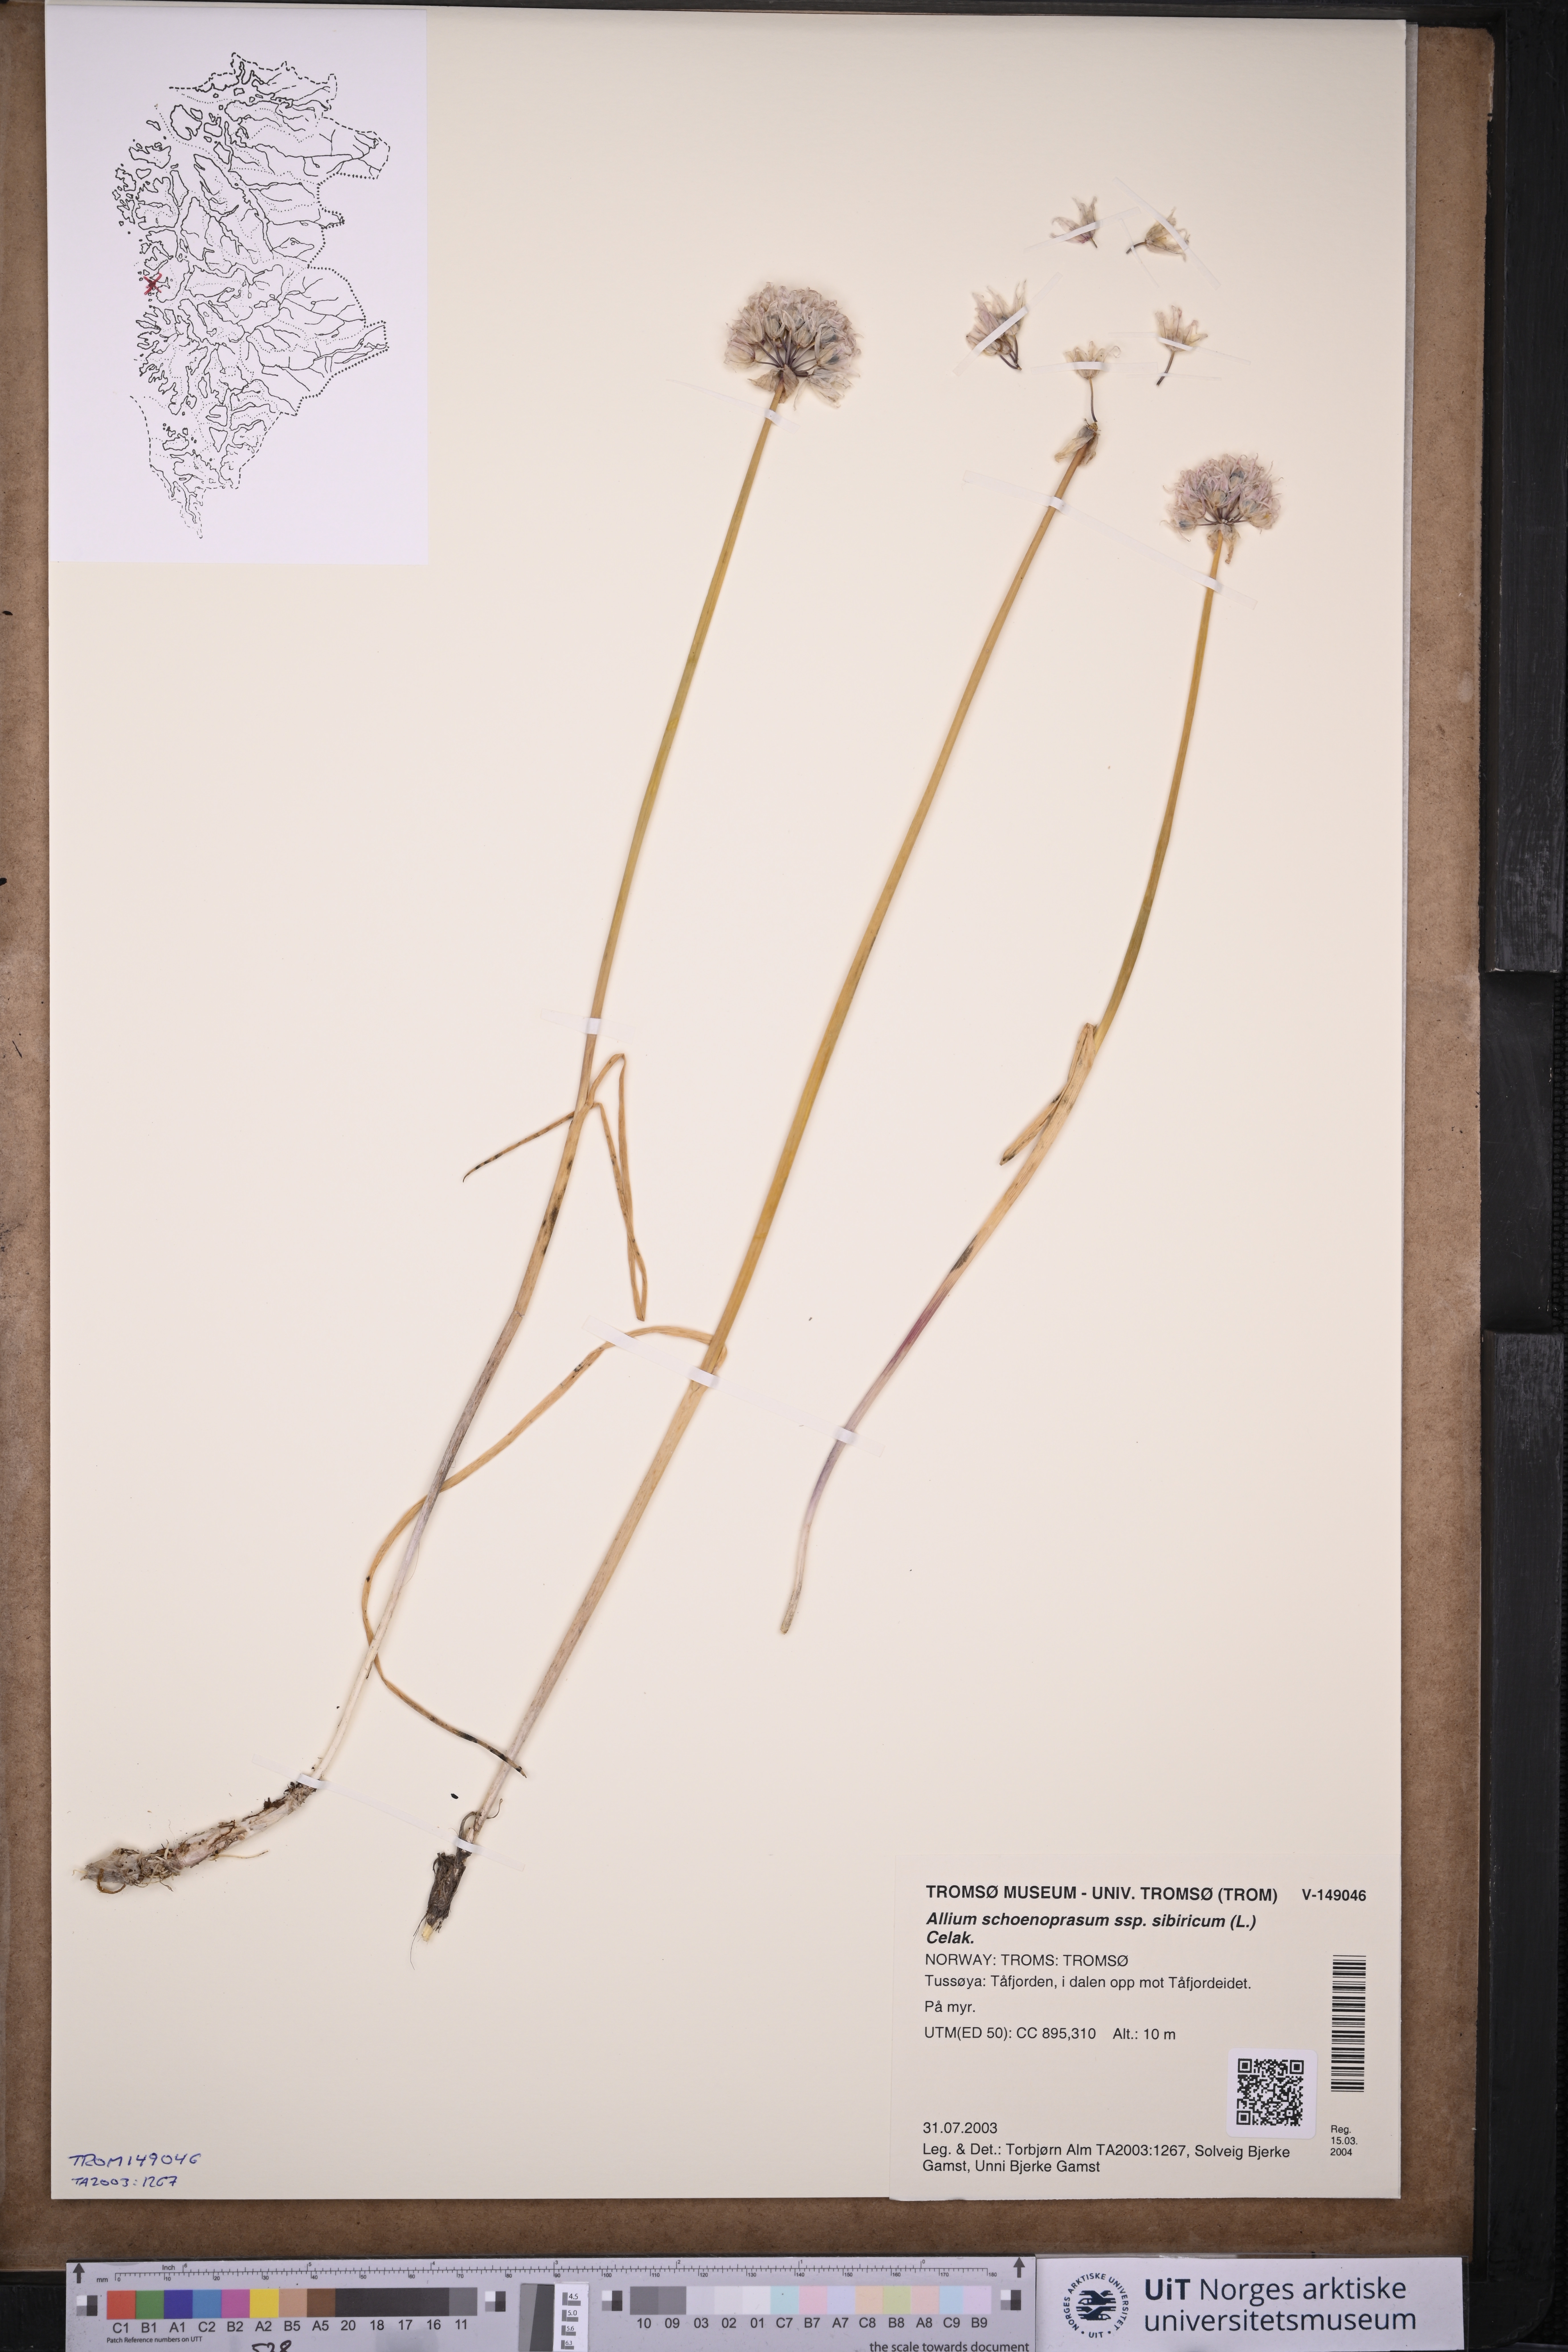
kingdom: Plantae
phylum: Tracheophyta
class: Liliopsida
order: Asparagales
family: Amaryllidaceae
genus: Allium
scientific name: Allium schoenoprasum
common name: Chives
